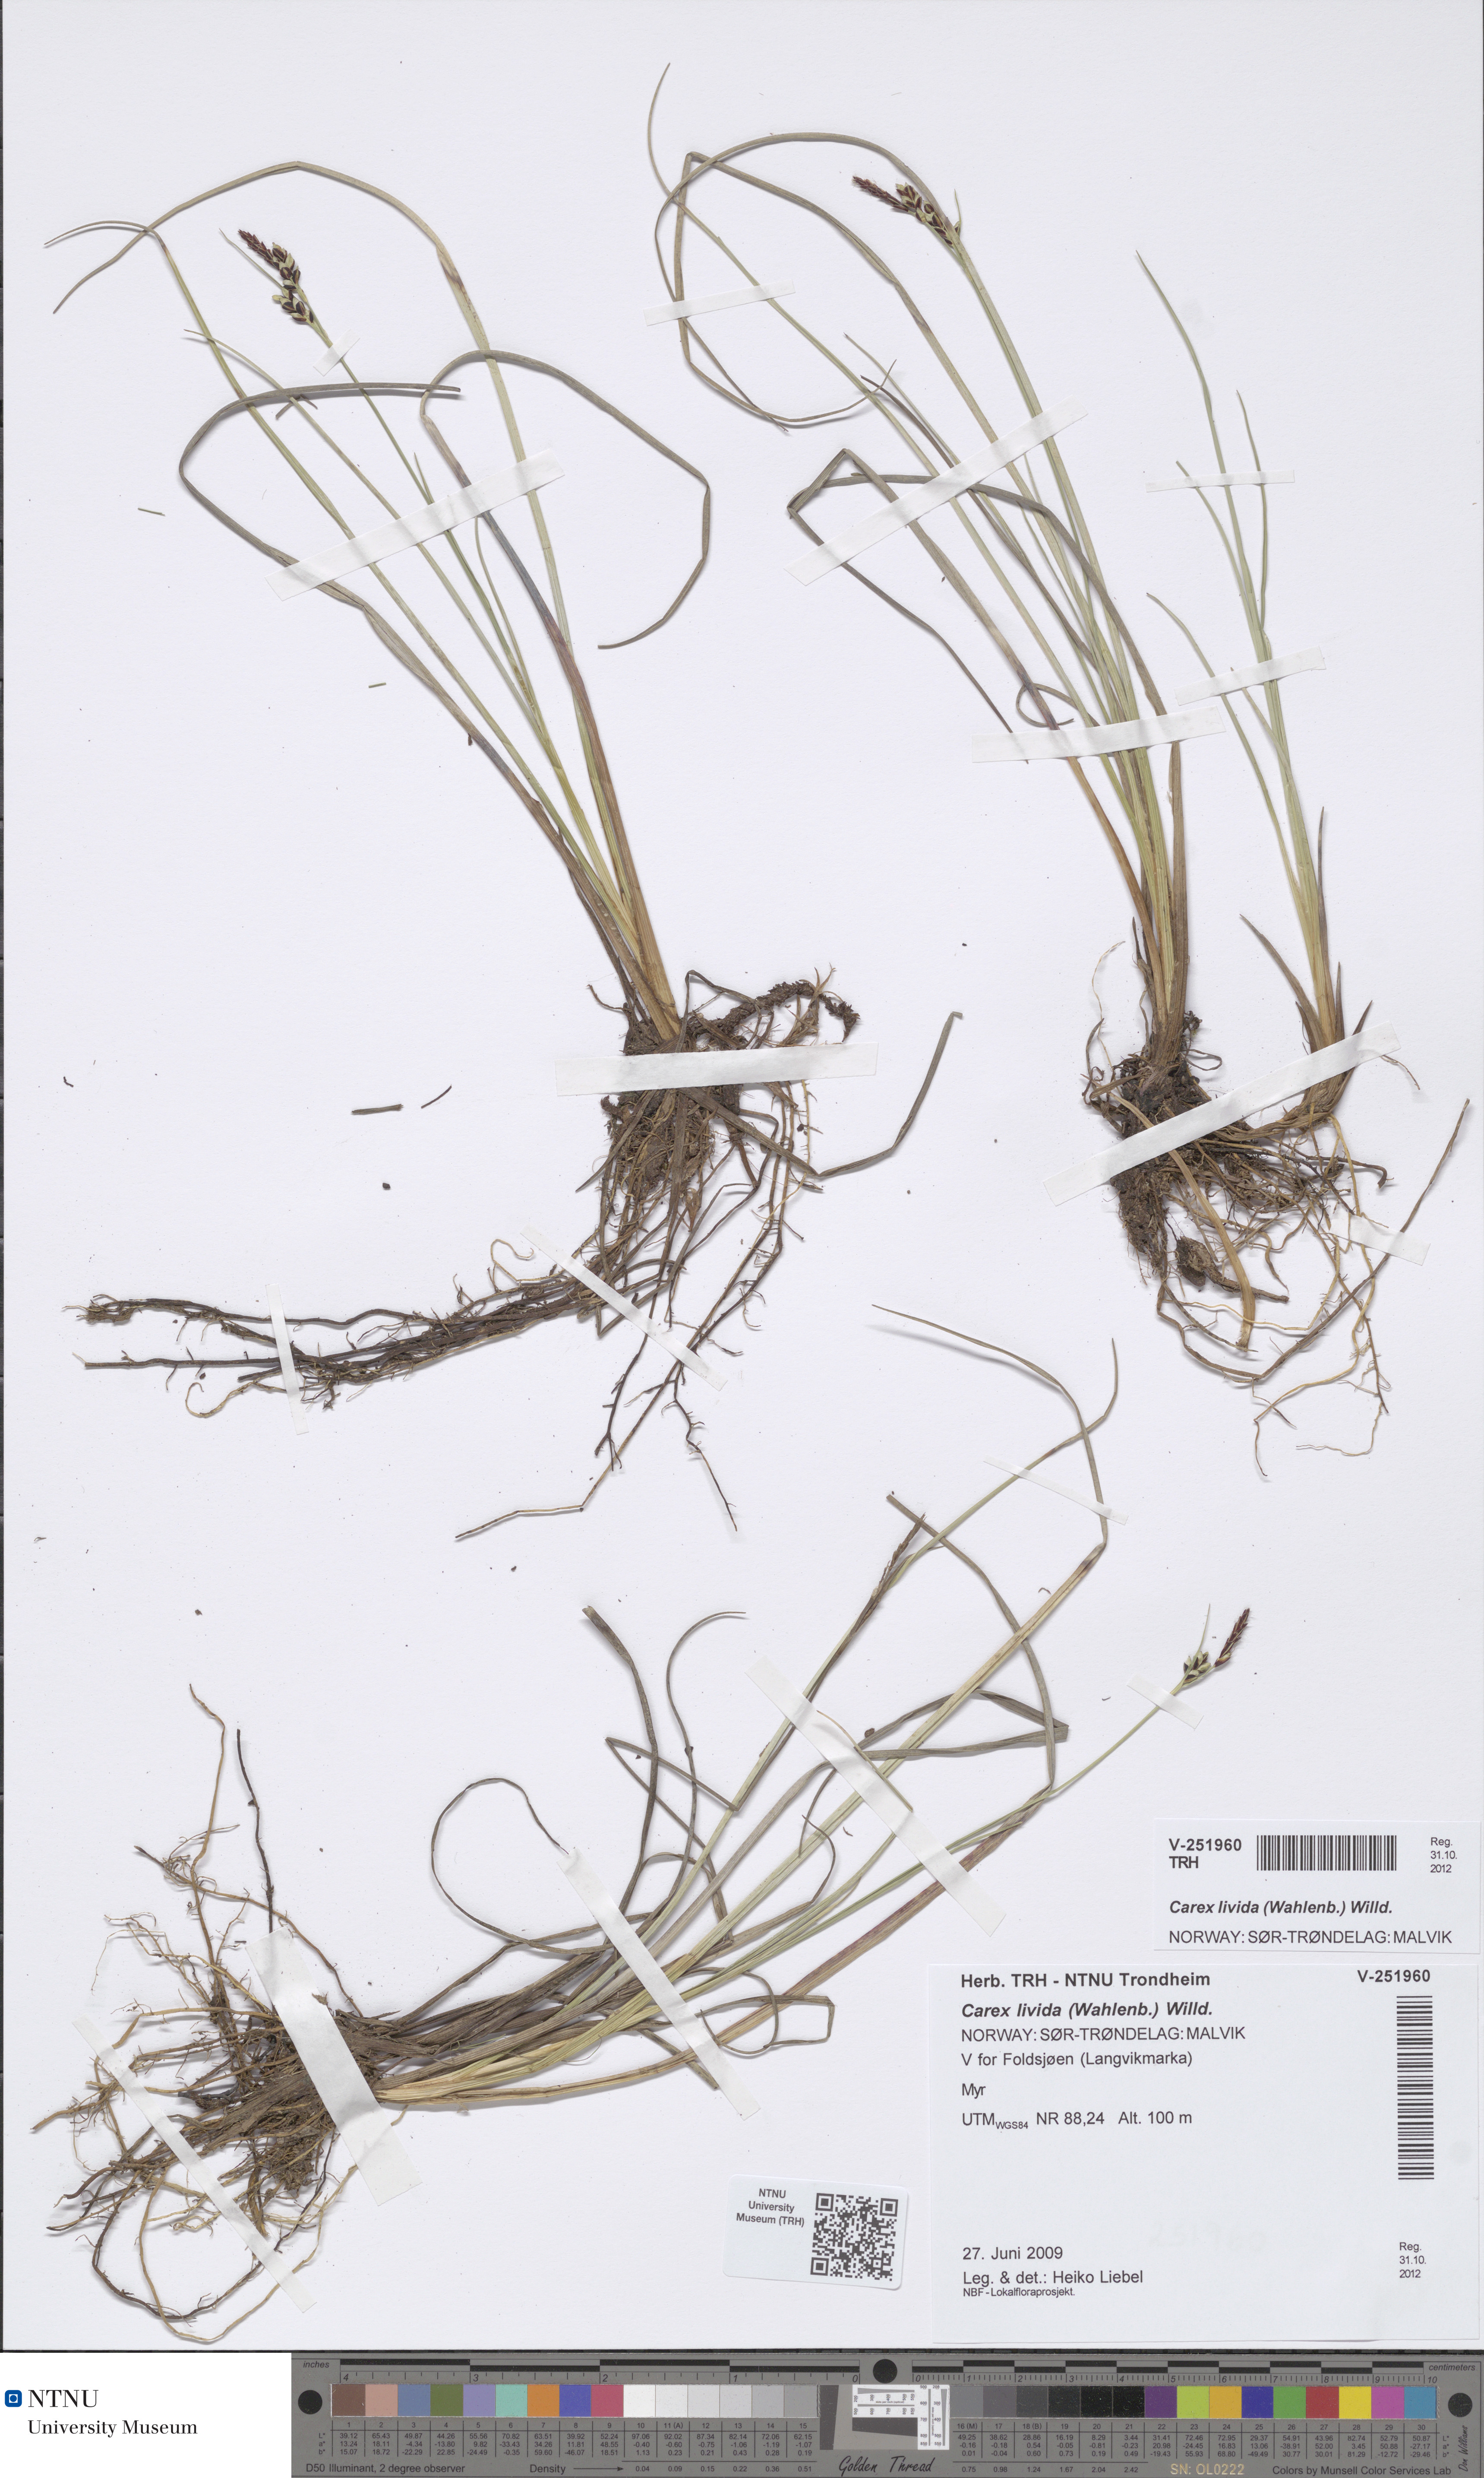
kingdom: Plantae
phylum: Tracheophyta
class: Liliopsida
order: Poales
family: Cyperaceae
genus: Carex
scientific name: Carex livida
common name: Livid sedge
